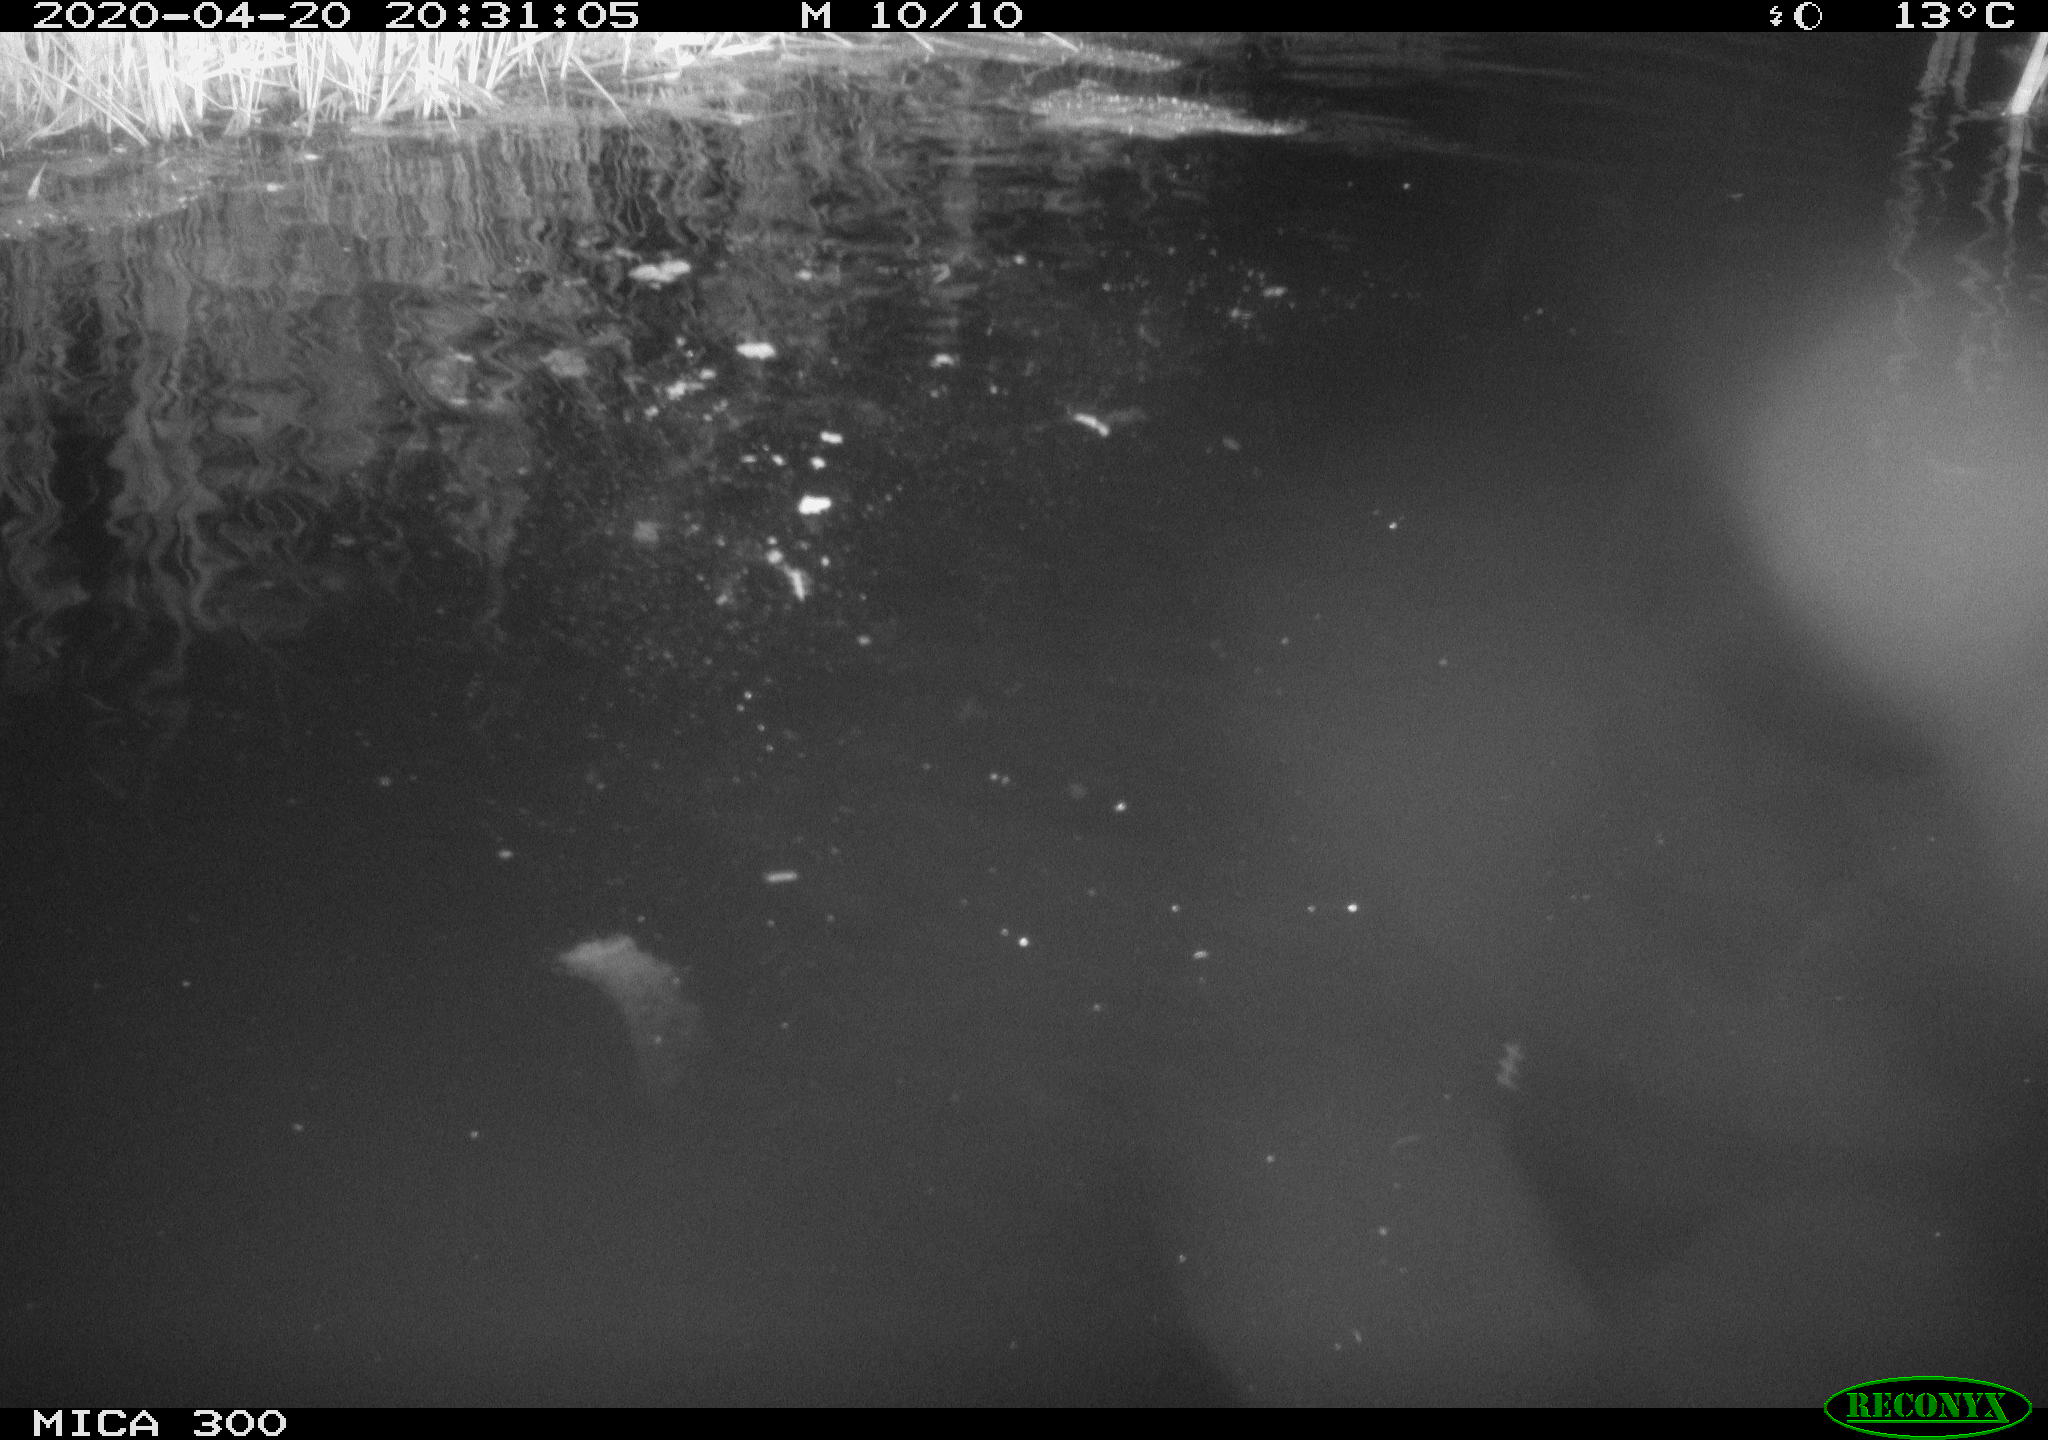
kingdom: Animalia
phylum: Chordata
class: Aves
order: Anseriformes
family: Anatidae
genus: Anas
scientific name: Anas platyrhynchos
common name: Mallard
